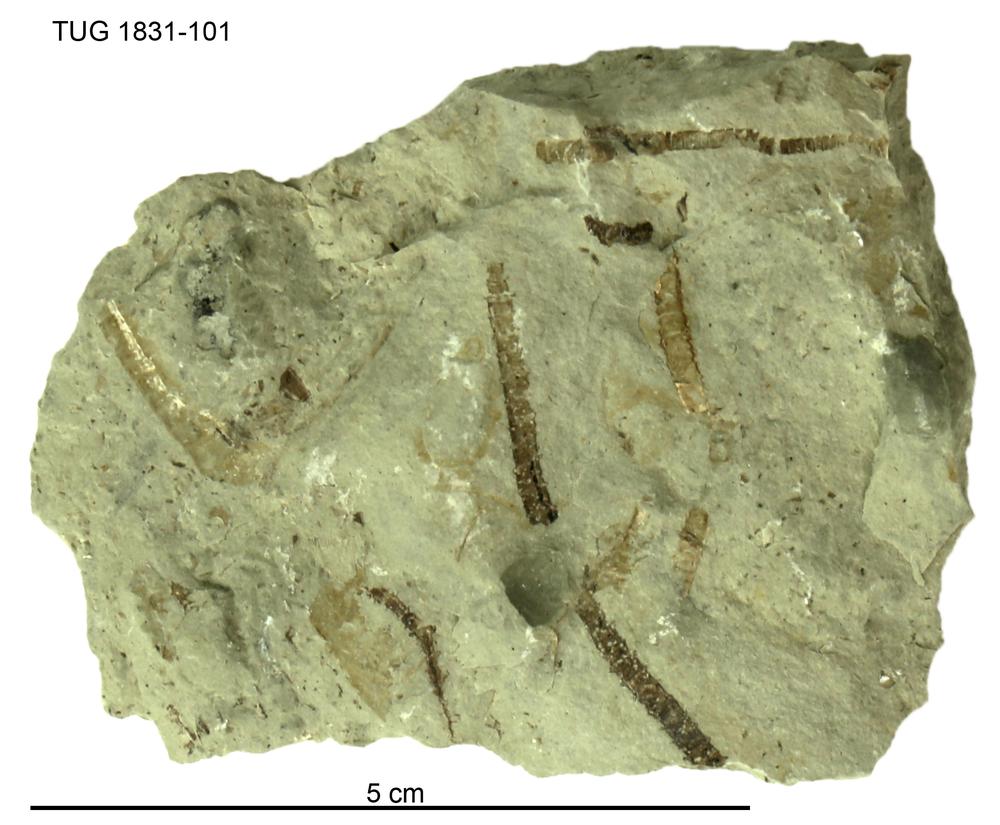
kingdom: Animalia
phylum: Echinodermata
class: Crinoidea
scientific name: Crinoidea
